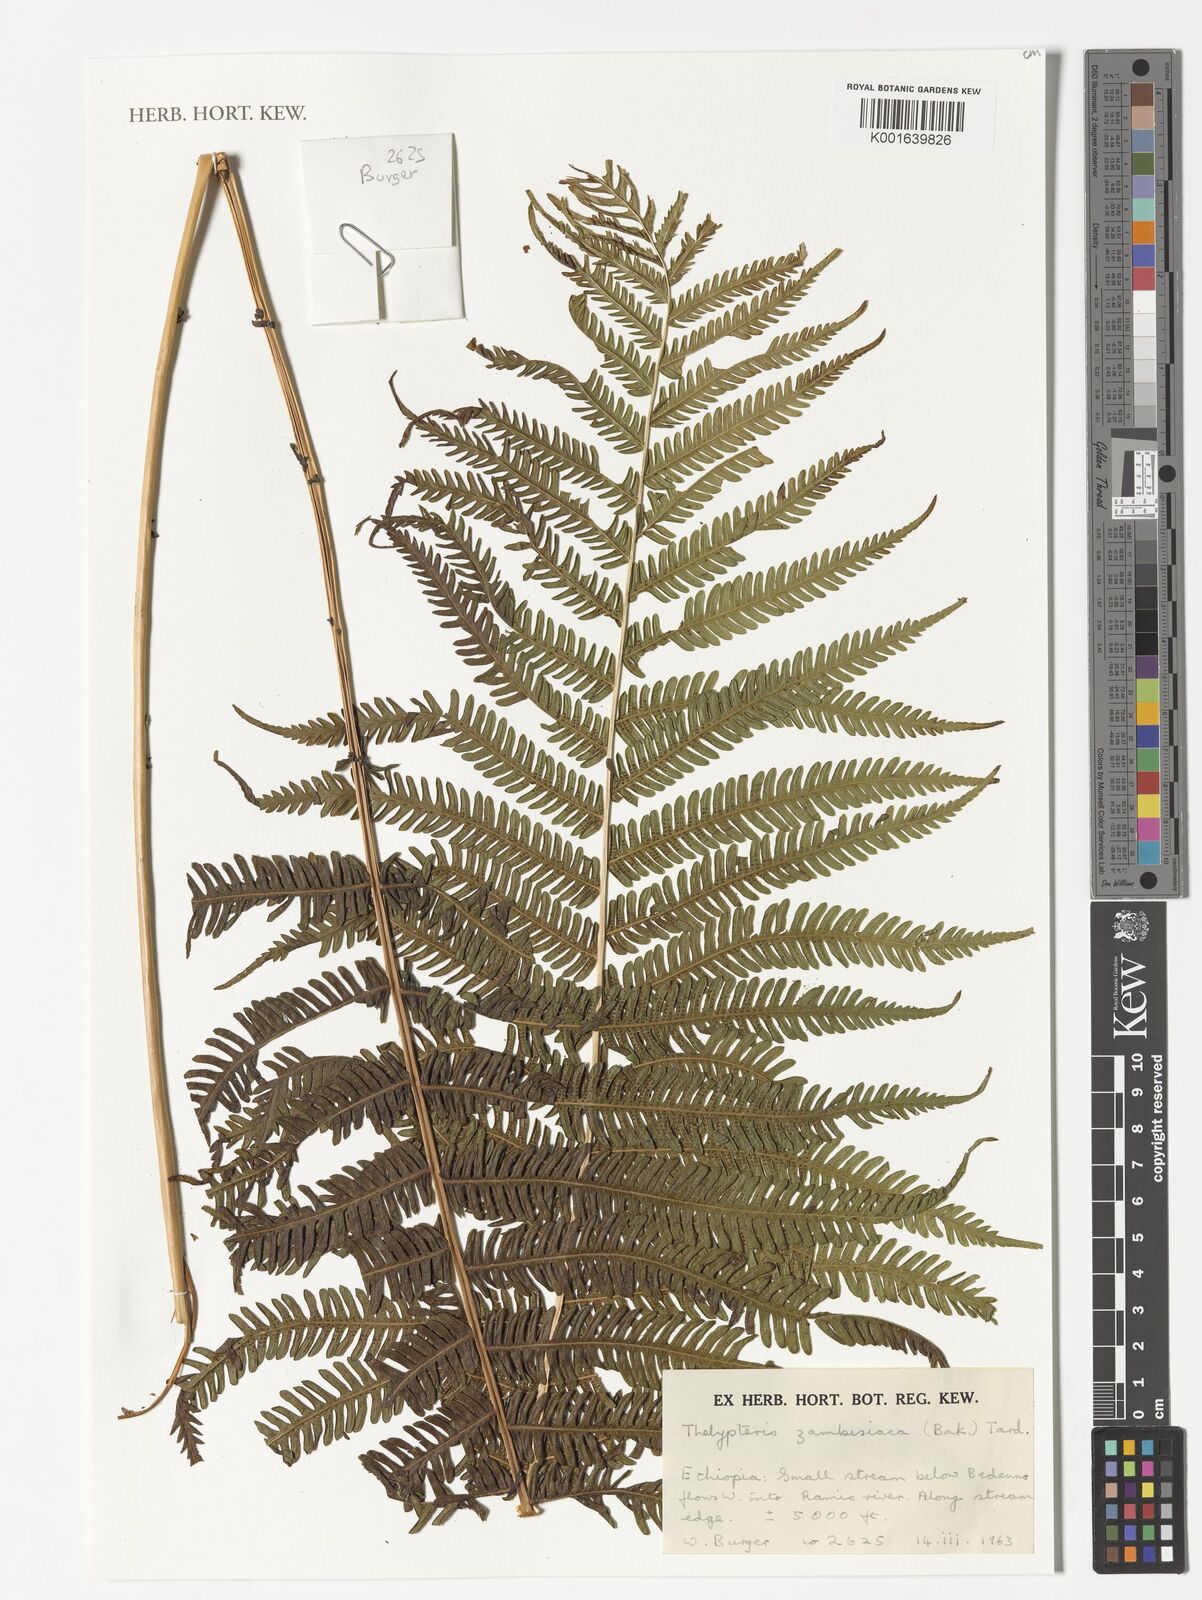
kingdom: Plantae
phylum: Tracheophyta
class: Polypodiopsida
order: Polypodiales
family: Thelypteridaceae
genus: Pseudocyclosorus
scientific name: Pseudocyclosorus pulcher
